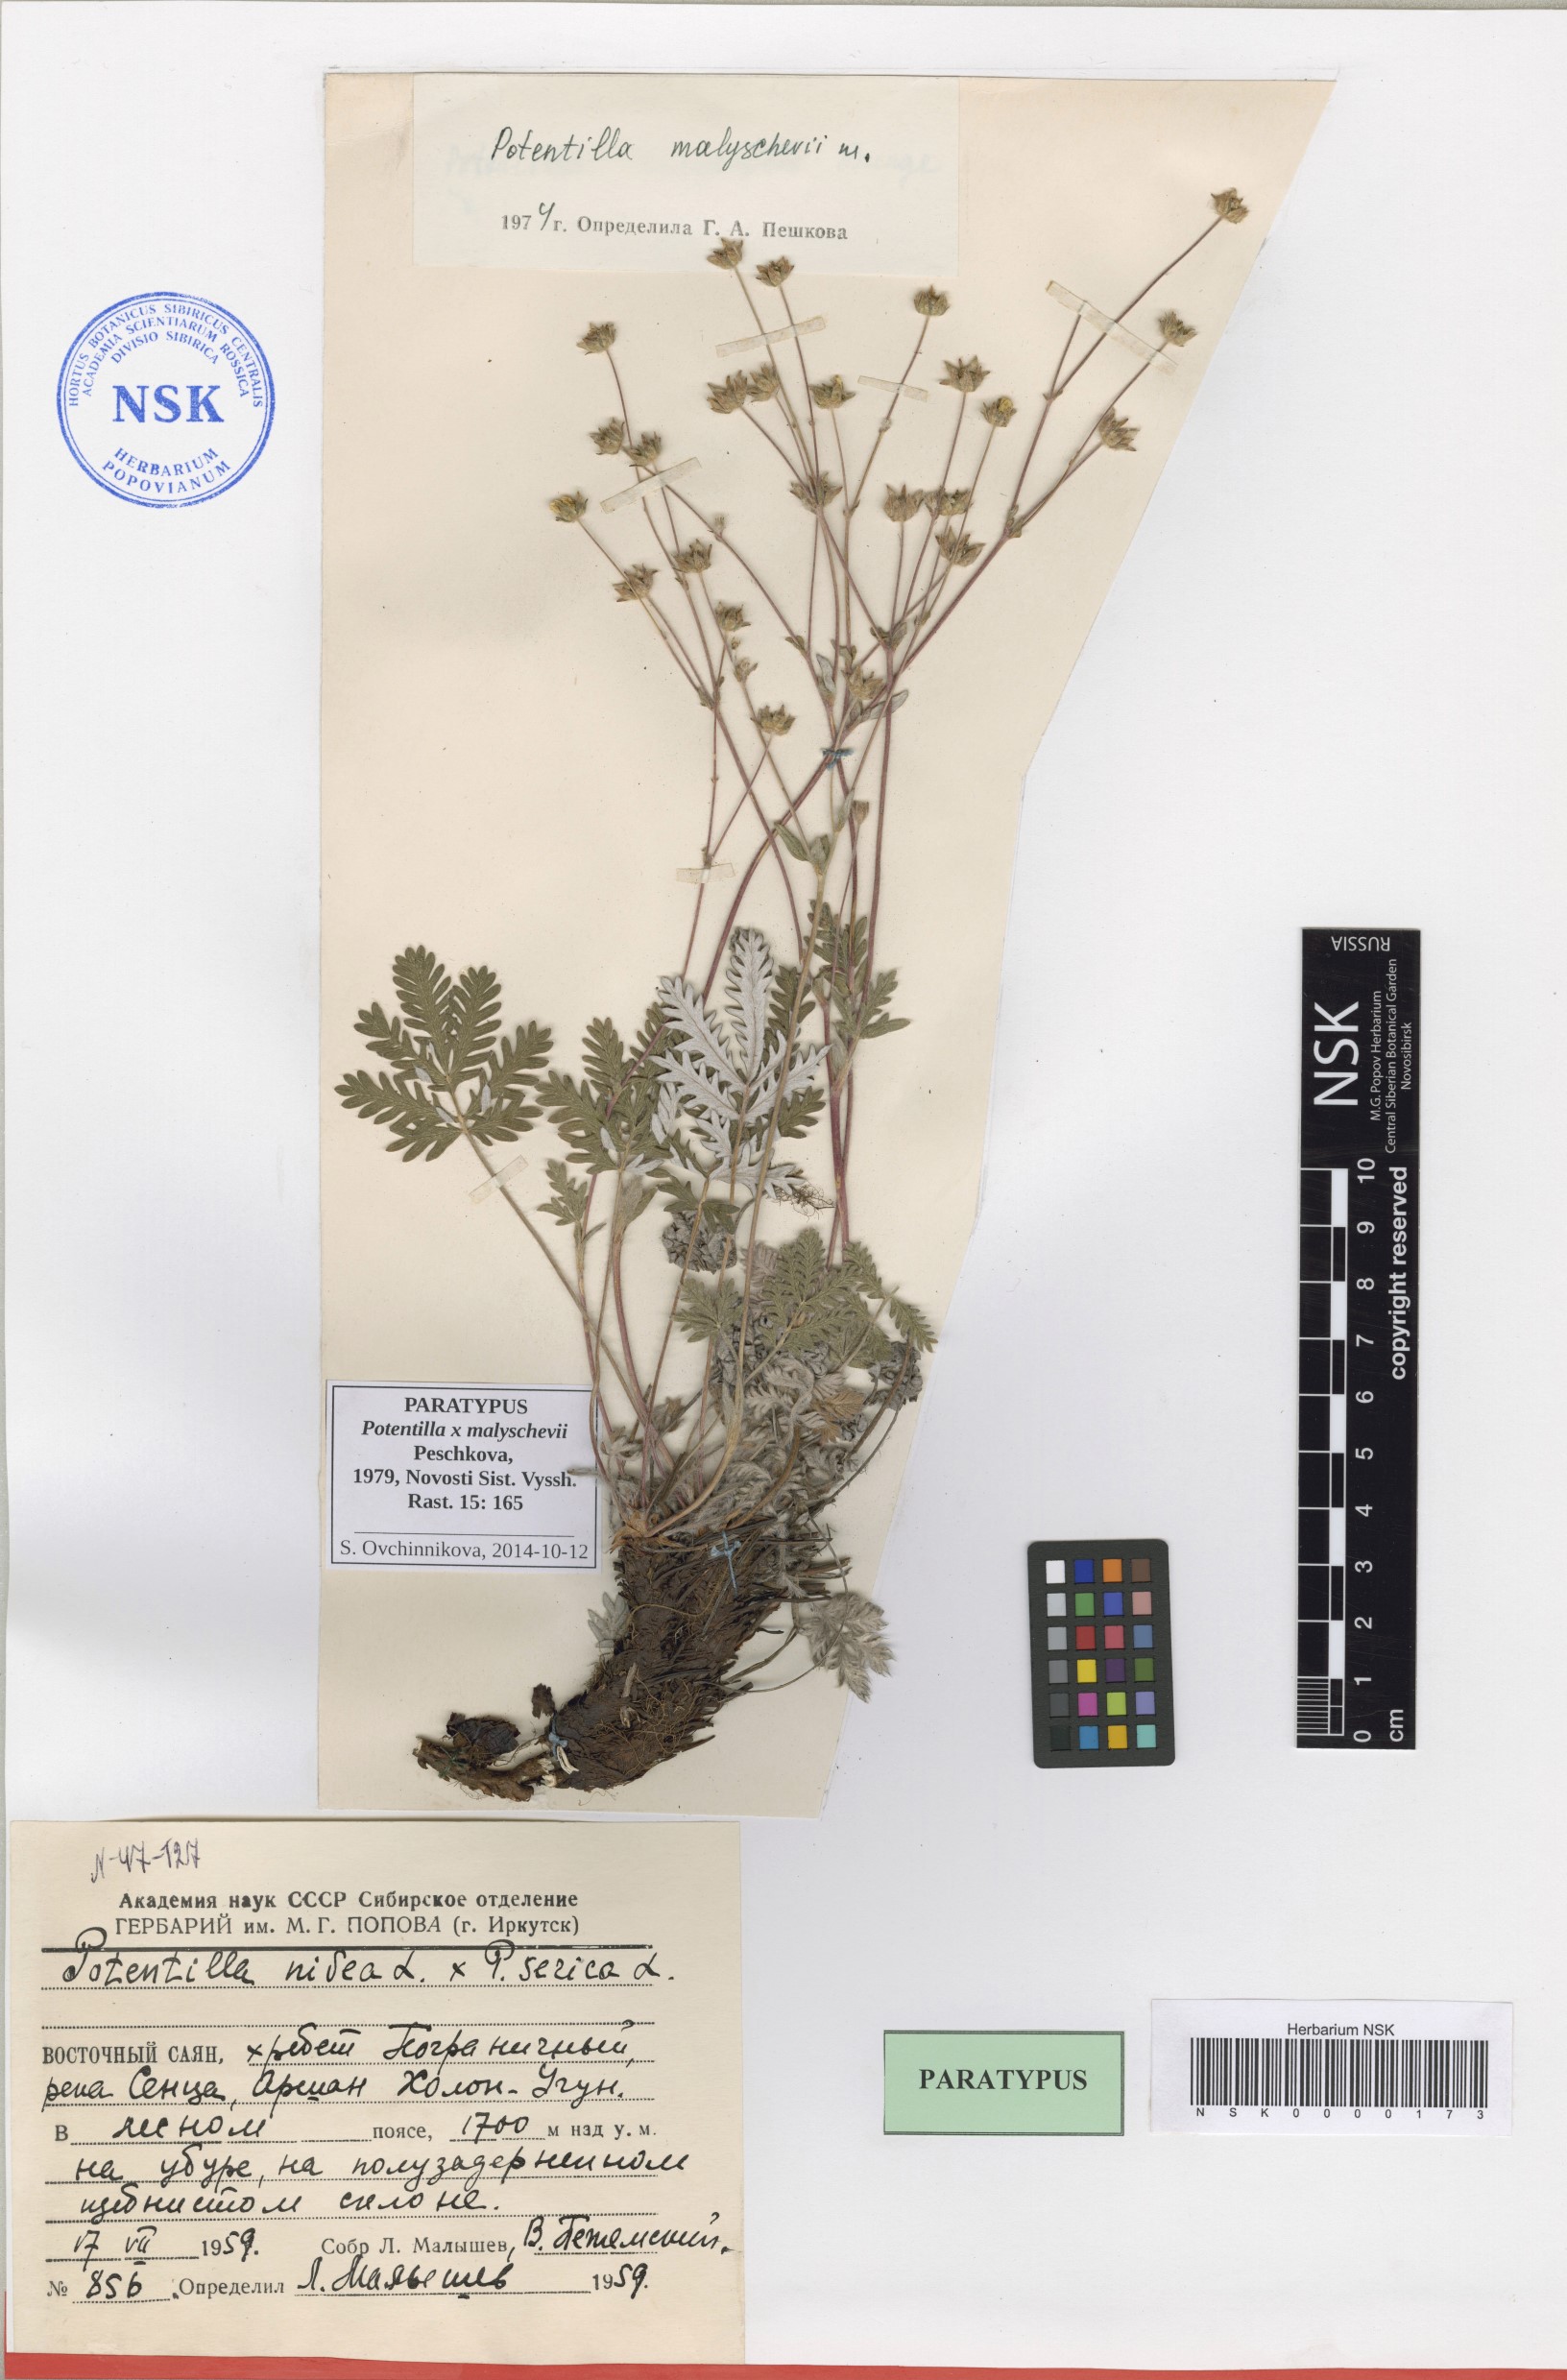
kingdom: Plantae
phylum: Tracheophyta
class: Magnoliopsida
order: Rosales
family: Rosaceae
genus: Potentilla
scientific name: Potentilla chionea
